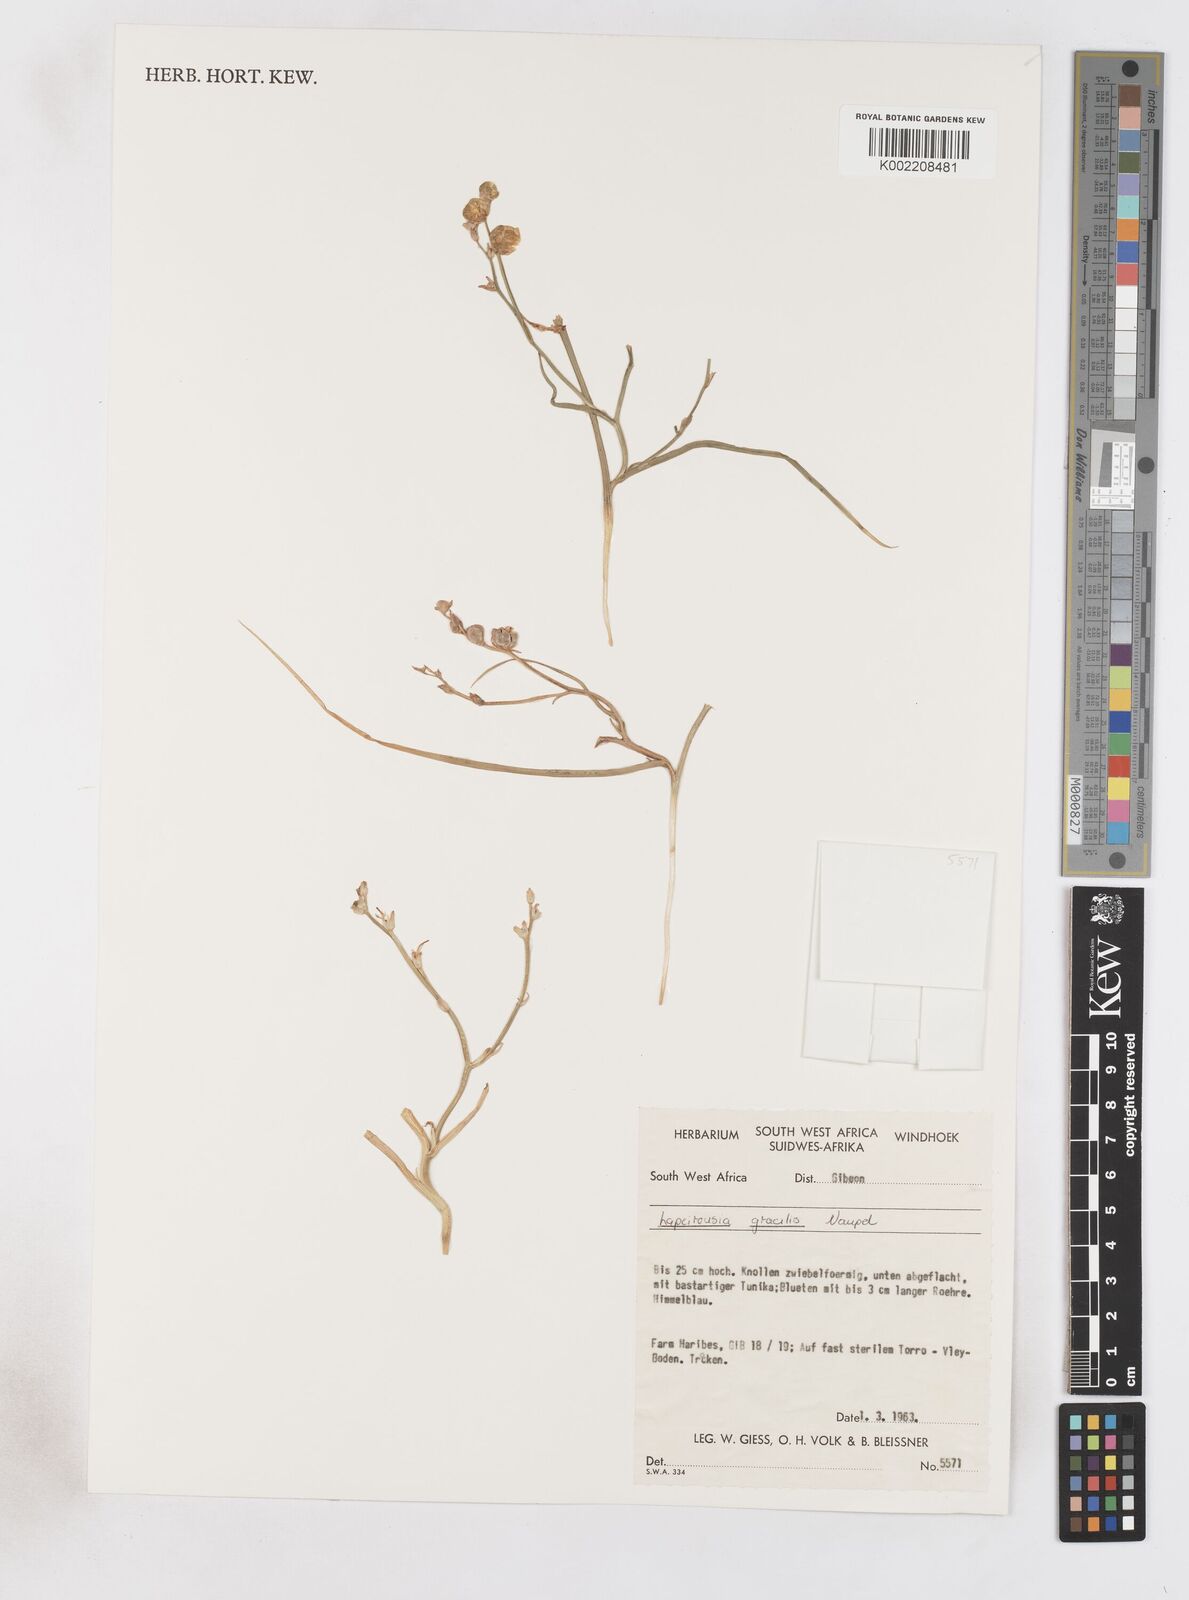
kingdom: Plantae
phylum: Tracheophyta
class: Liliopsida
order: Asparagales
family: Iridaceae
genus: Afrosolen
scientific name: Afrosolen gracilis
